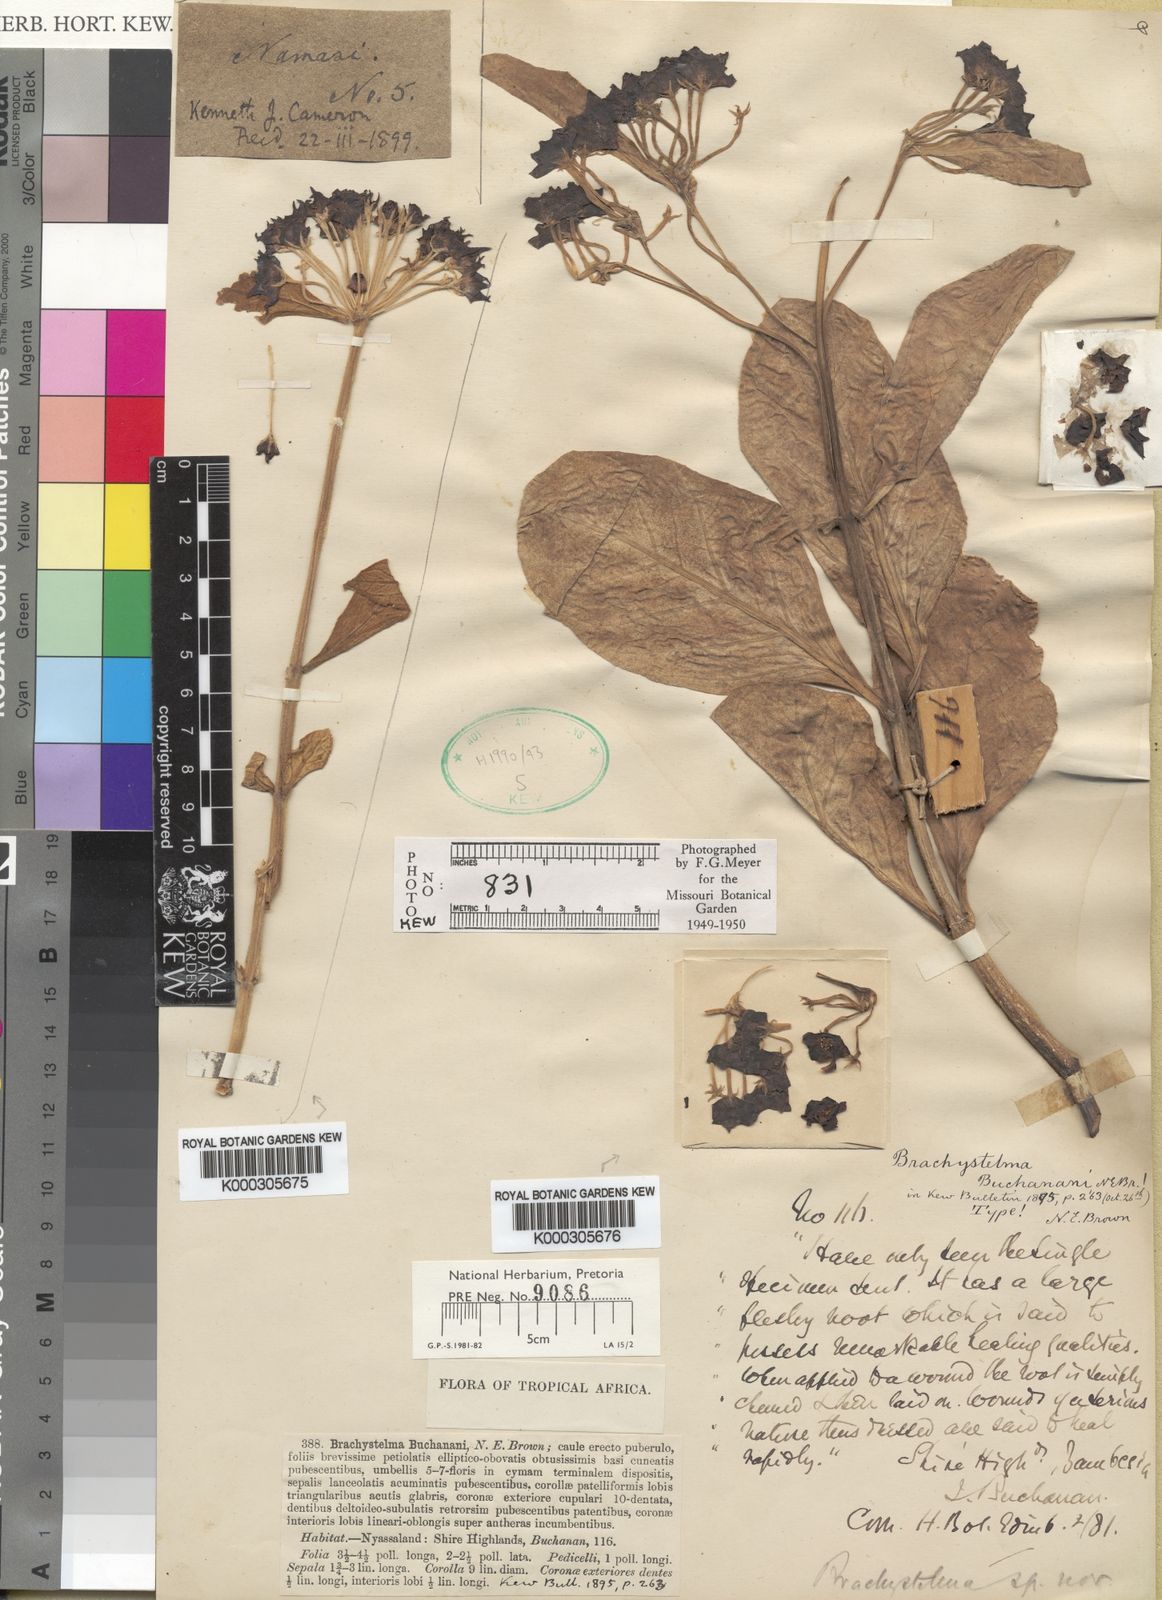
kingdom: Plantae
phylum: Tracheophyta
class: Magnoliopsida
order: Gentianales
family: Apocynaceae
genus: Ceropegia
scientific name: Ceropegia buchananii
